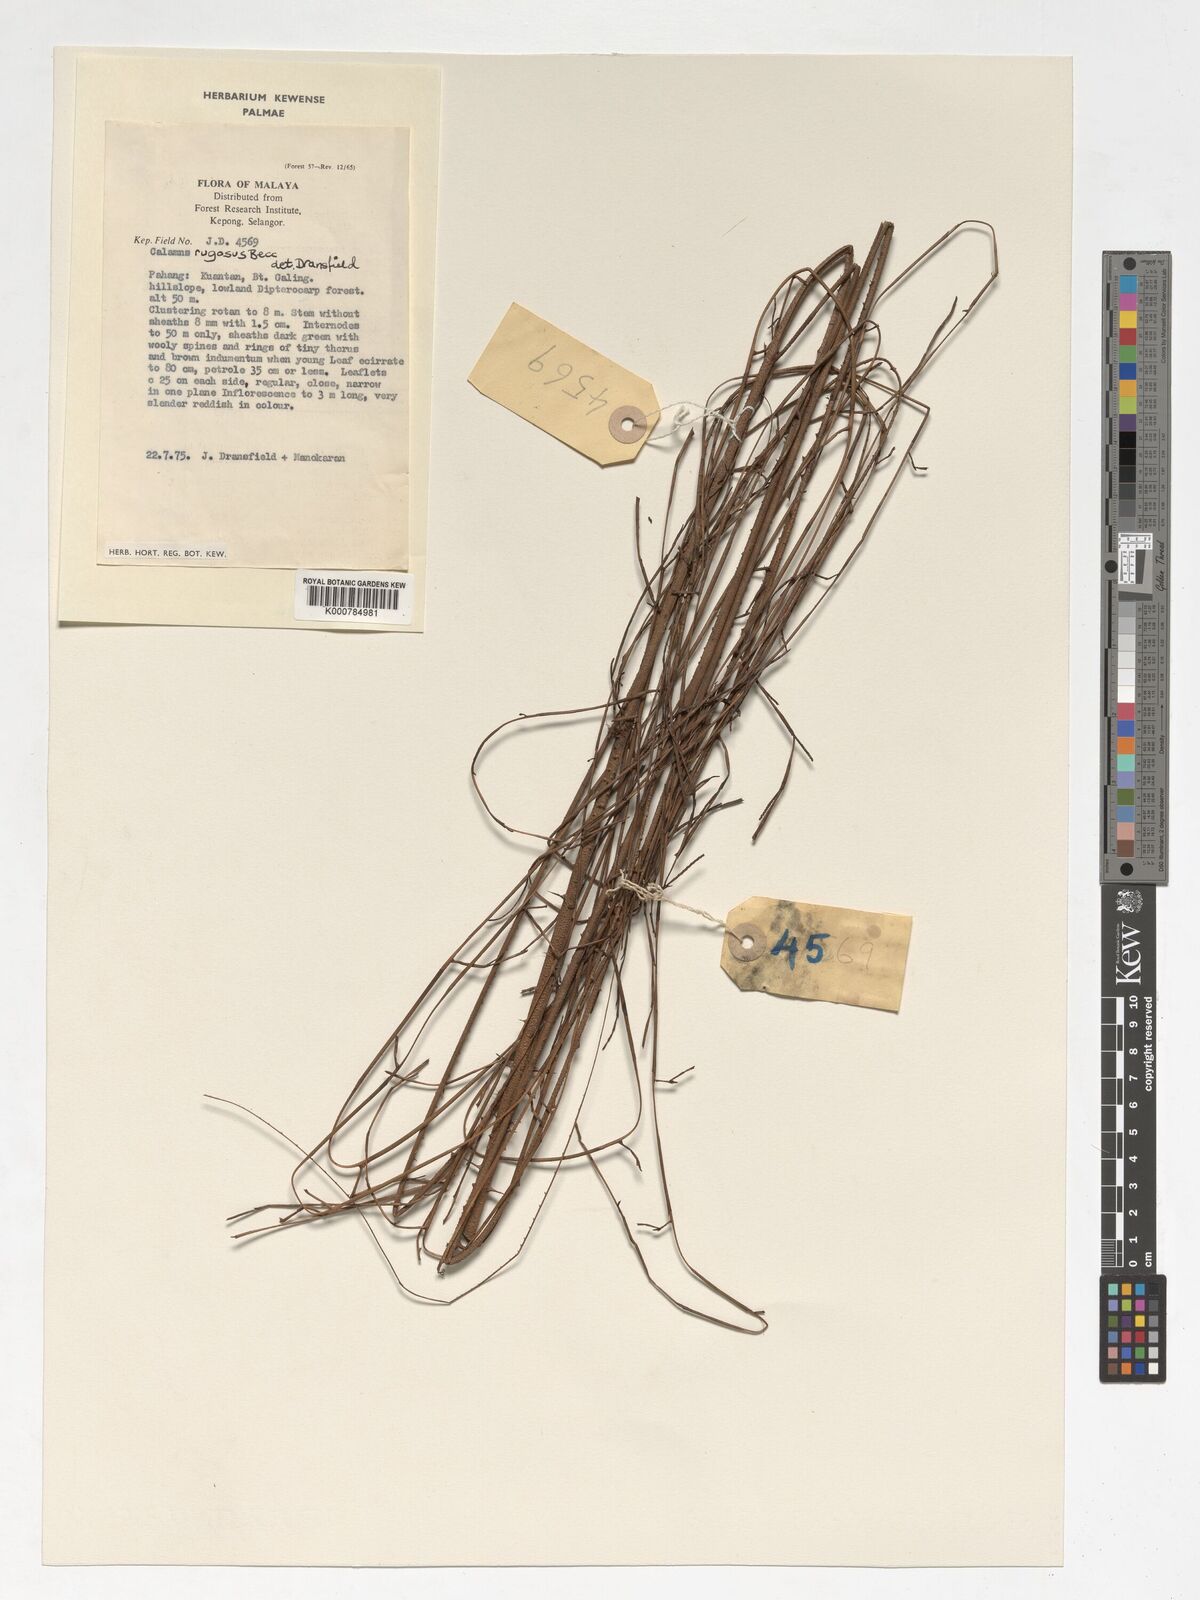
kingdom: Plantae
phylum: Tracheophyta
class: Liliopsida
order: Arecales
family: Arecaceae
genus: Calamus
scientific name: Calamus rugosus
